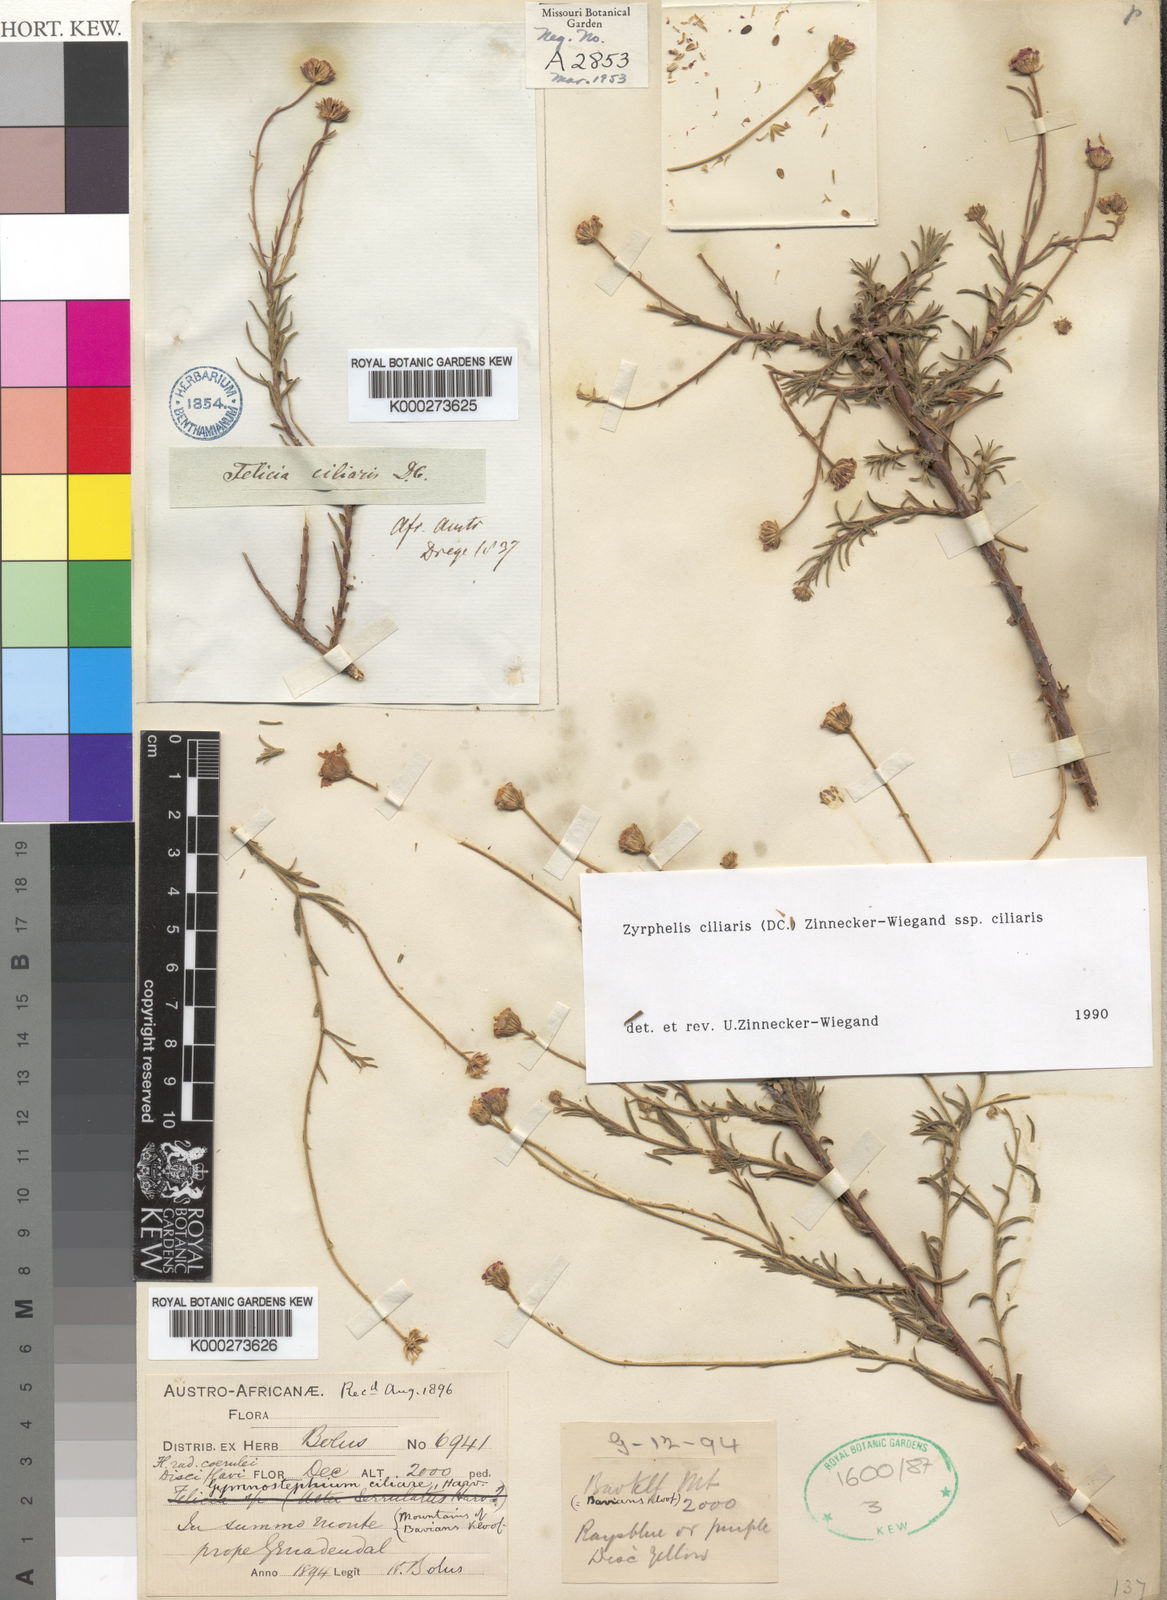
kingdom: Plantae
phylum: Tracheophyta
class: Magnoliopsida
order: Asterales
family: Asteraceae
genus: Zyrphelis
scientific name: Zyrphelis ciliaris
